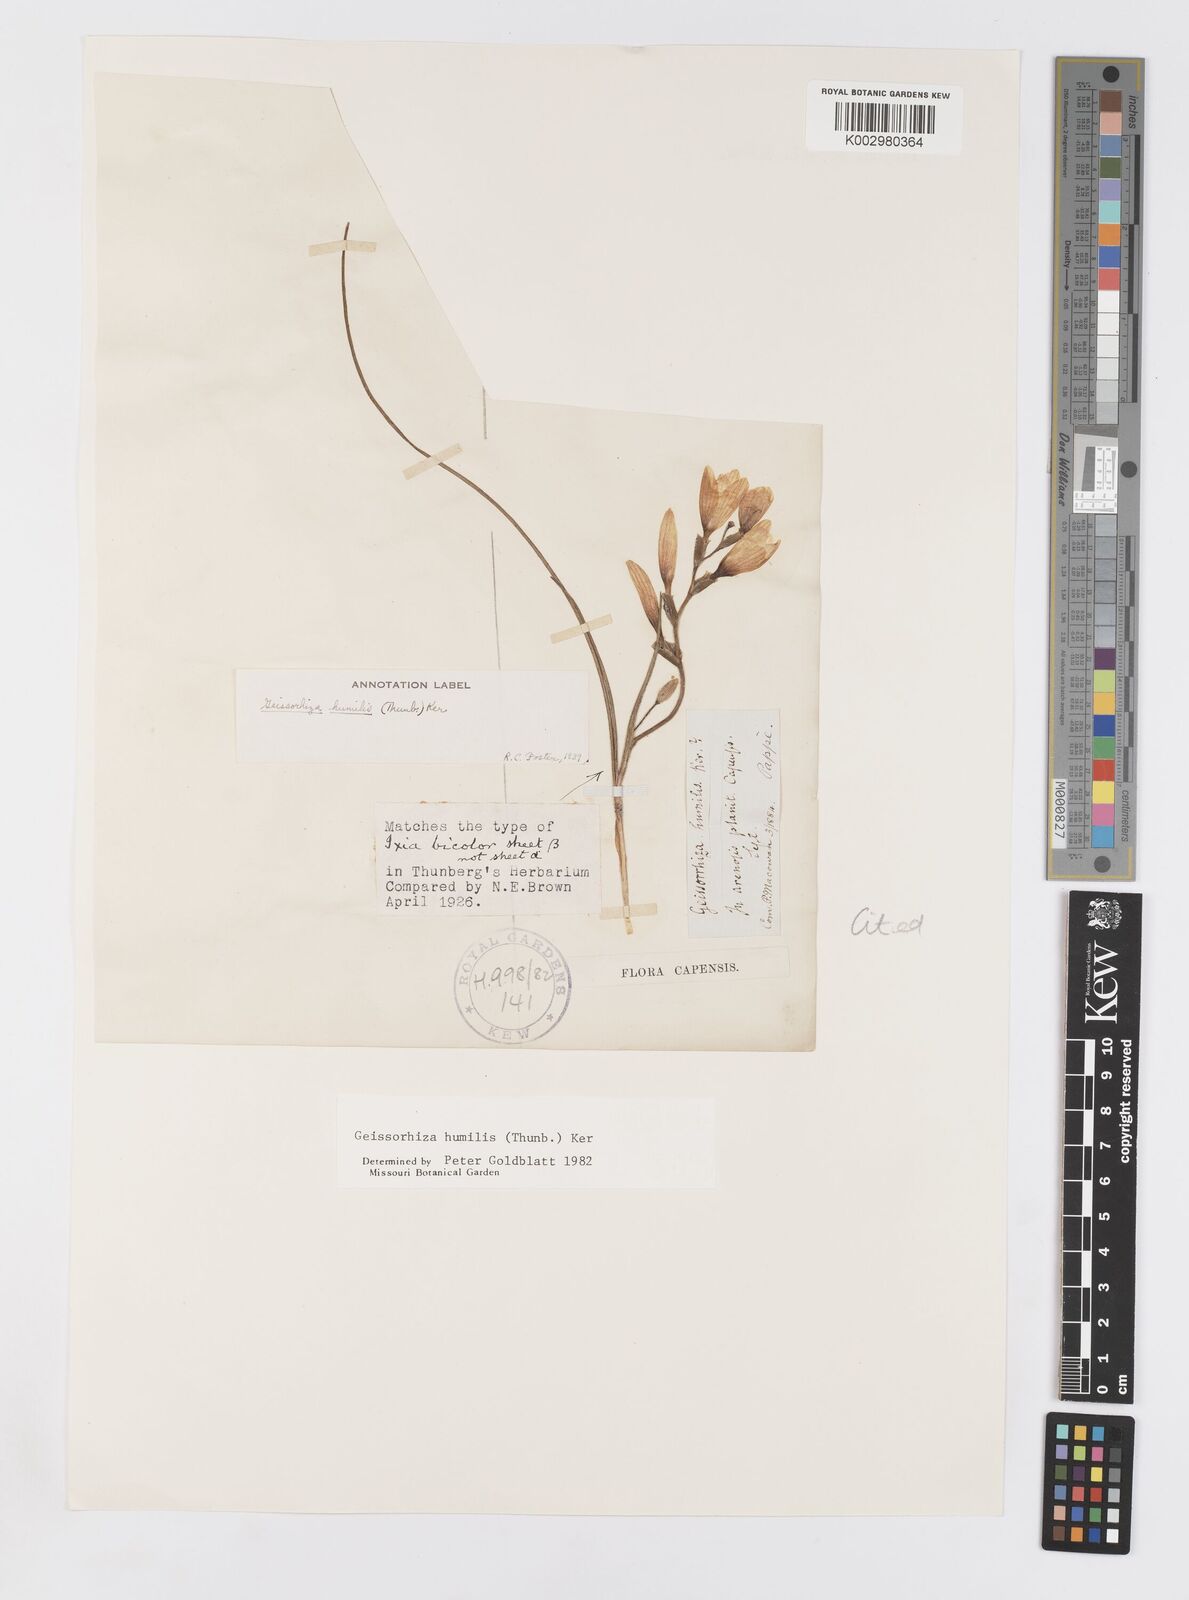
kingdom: Plantae
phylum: Tracheophyta
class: Liliopsida
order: Asparagales
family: Iridaceae
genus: Geissorhiza
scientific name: Geissorhiza humilis
